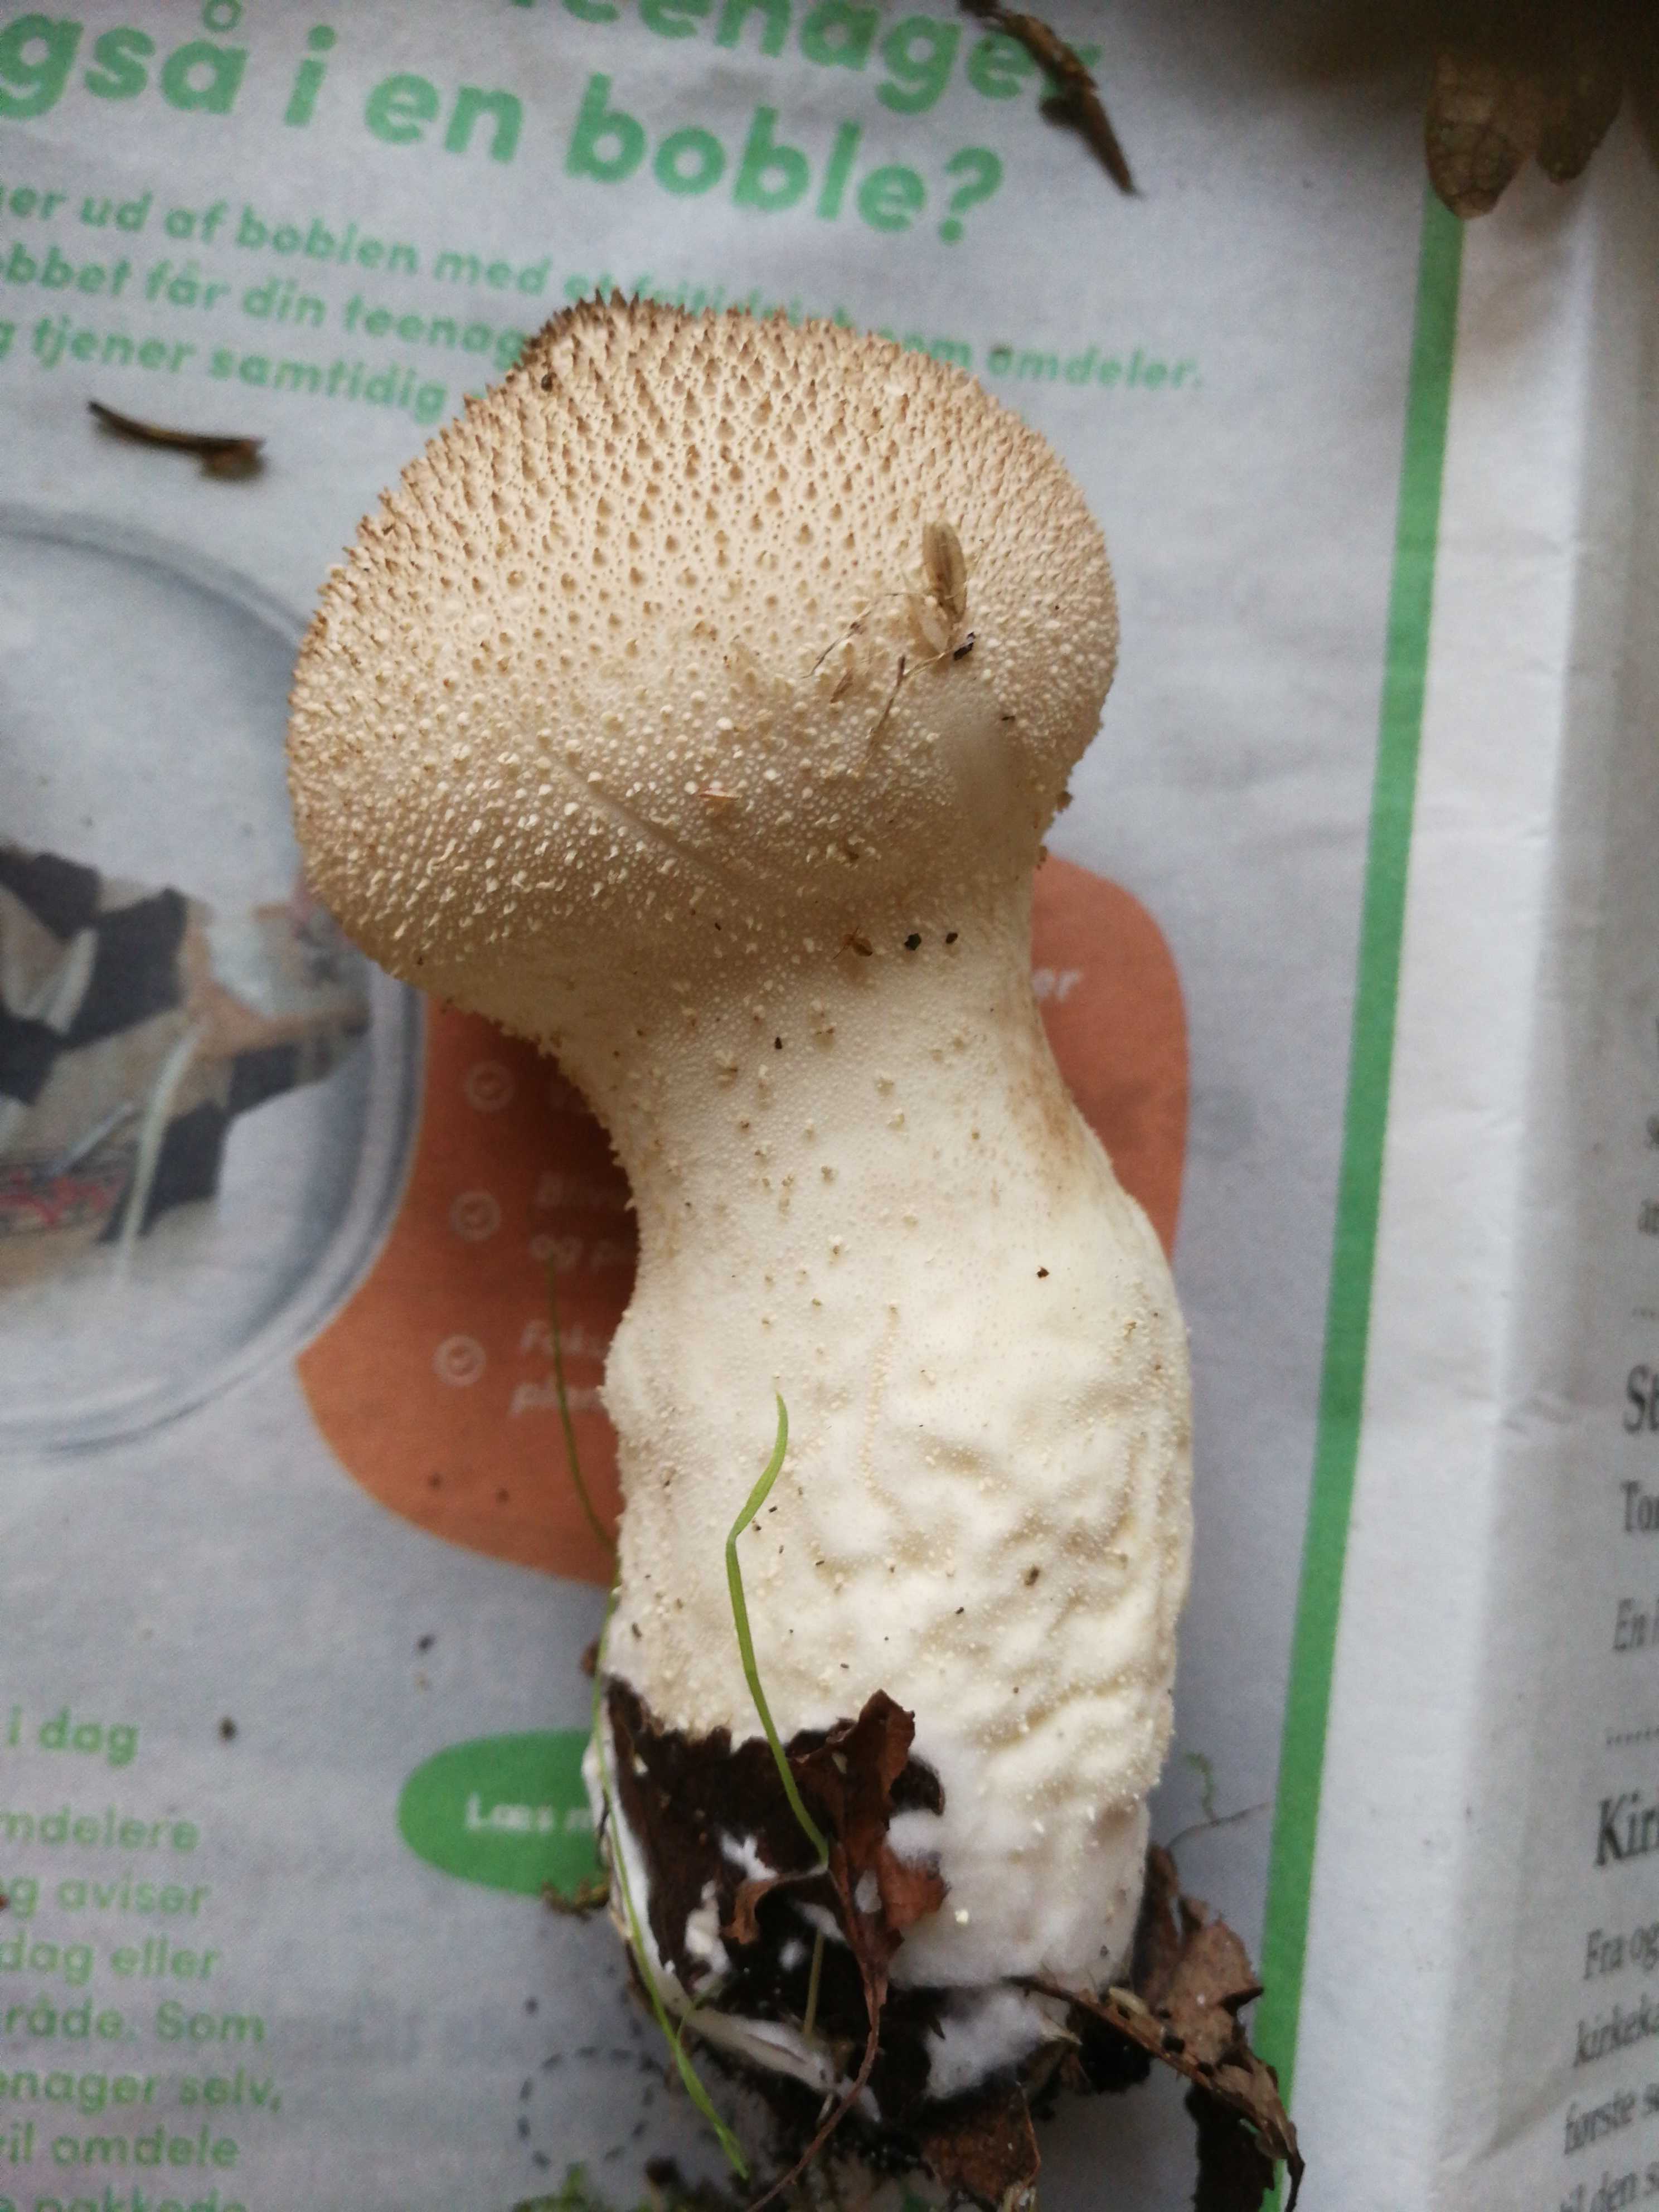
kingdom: Fungi
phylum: Basidiomycota
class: Agaricomycetes
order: Agaricales
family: Lycoperdaceae
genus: Lycoperdon
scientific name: Lycoperdon perlatum
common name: krystal-støvbold
